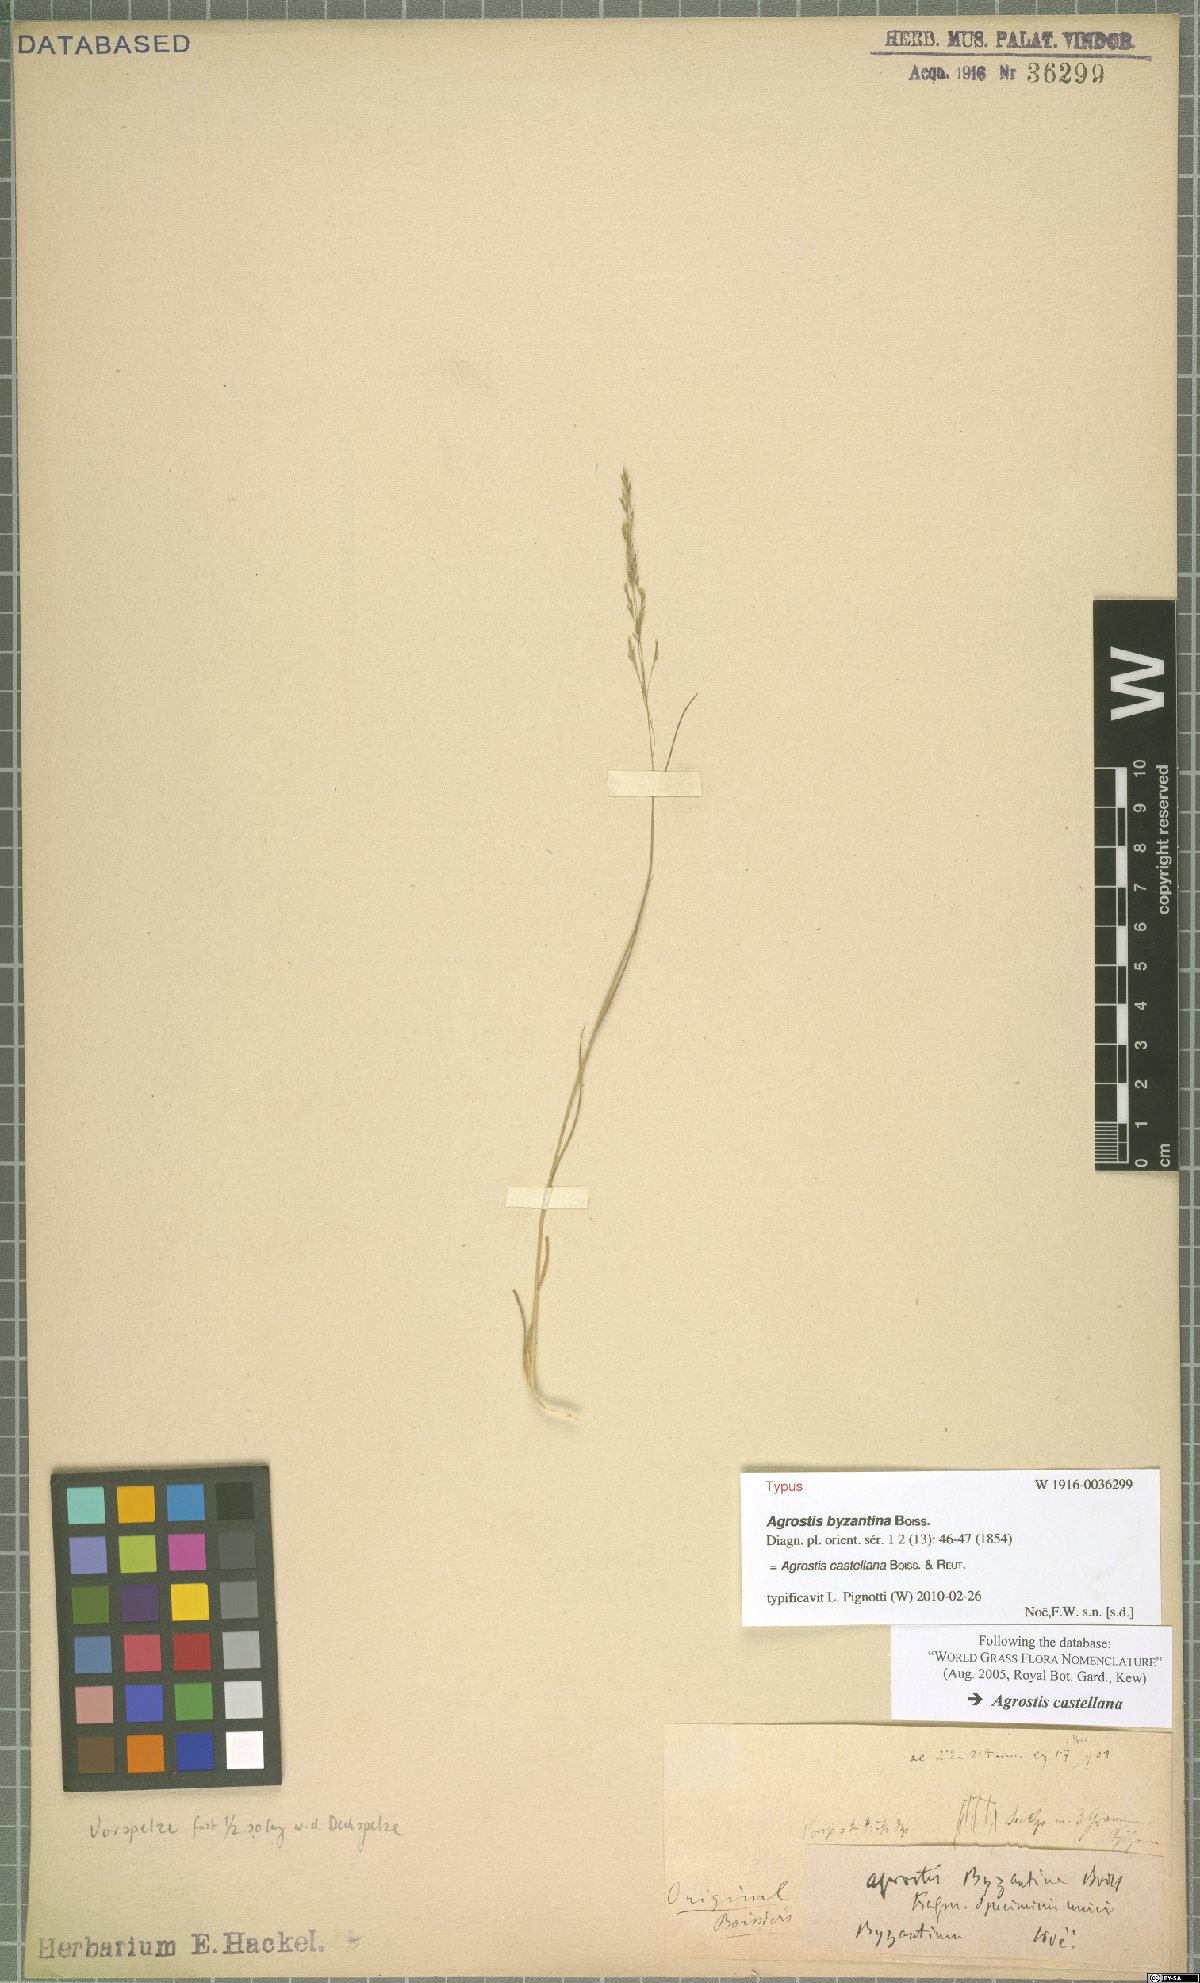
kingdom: Plantae
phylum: Tracheophyta
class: Liliopsida
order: Poales
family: Poaceae
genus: Agrostis
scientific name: Agrostis castellana
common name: Highland bent
